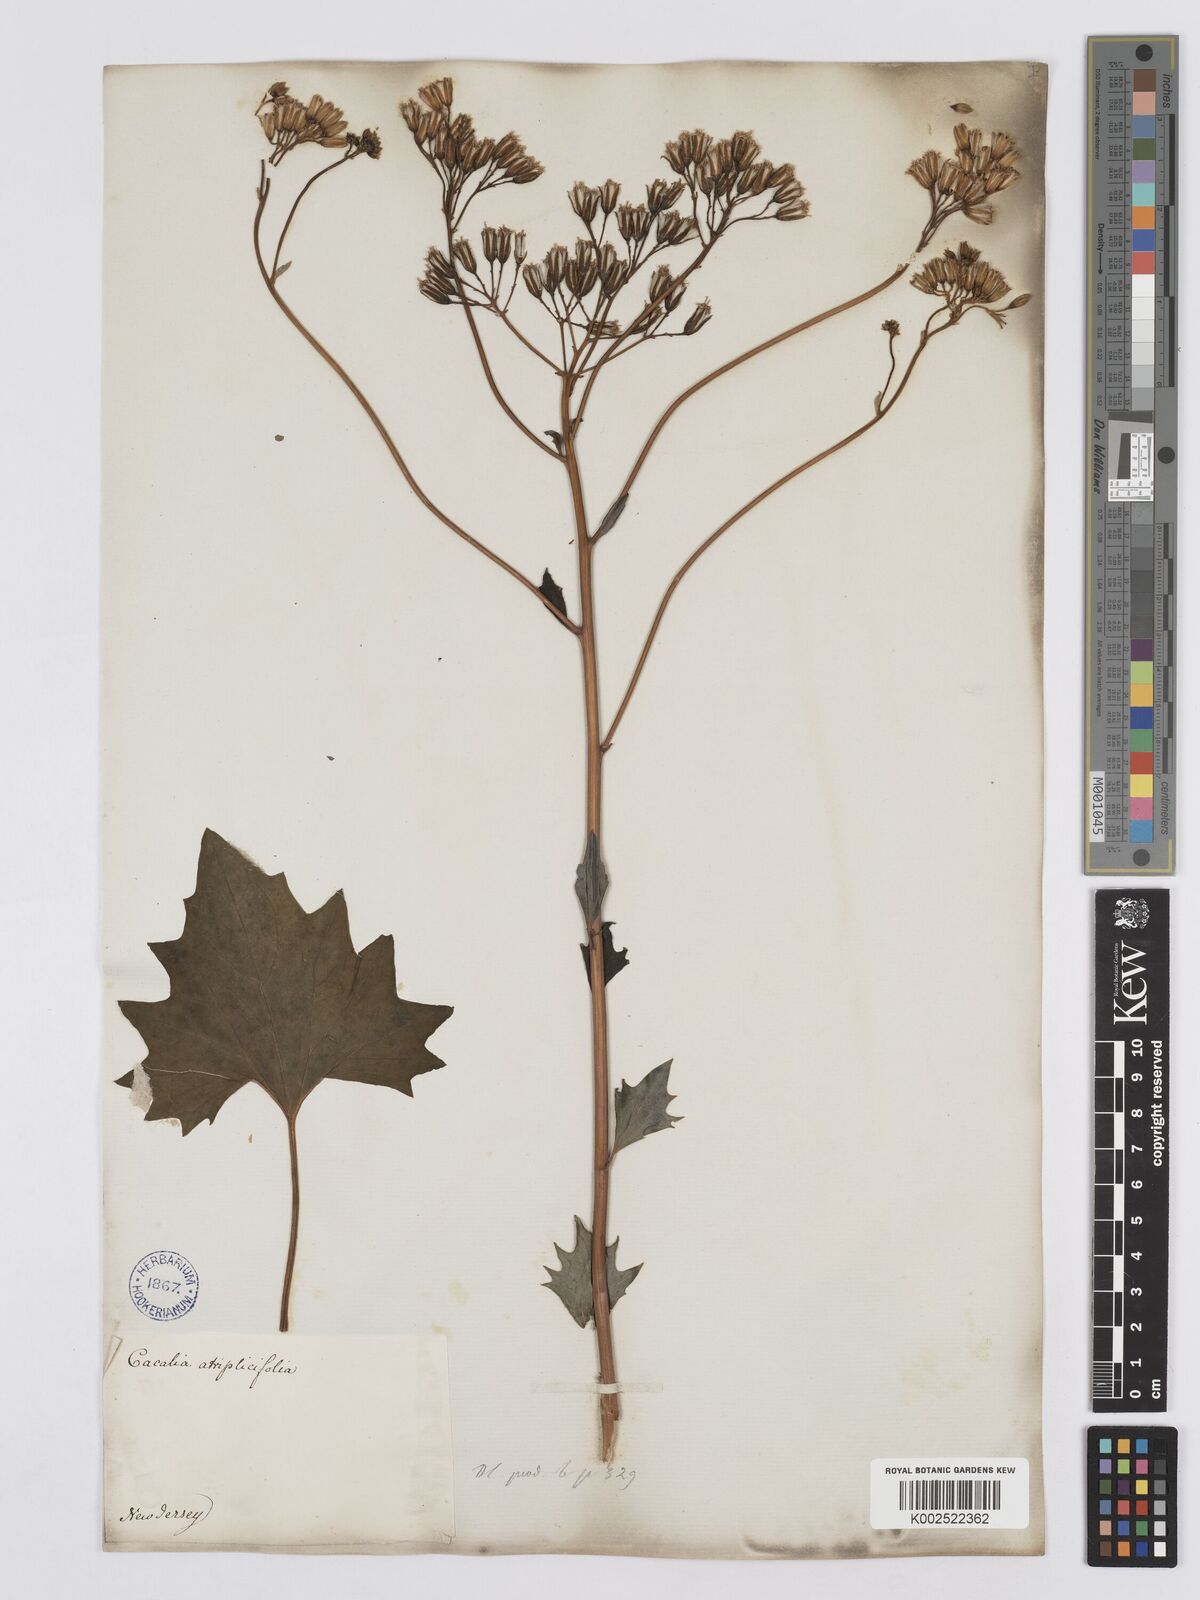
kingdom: Plantae
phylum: Tracheophyta
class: Magnoliopsida
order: Asterales
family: Asteraceae
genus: Arnoglossum
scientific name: Arnoglossum atriplicifolium
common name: Pale indian-plantain
